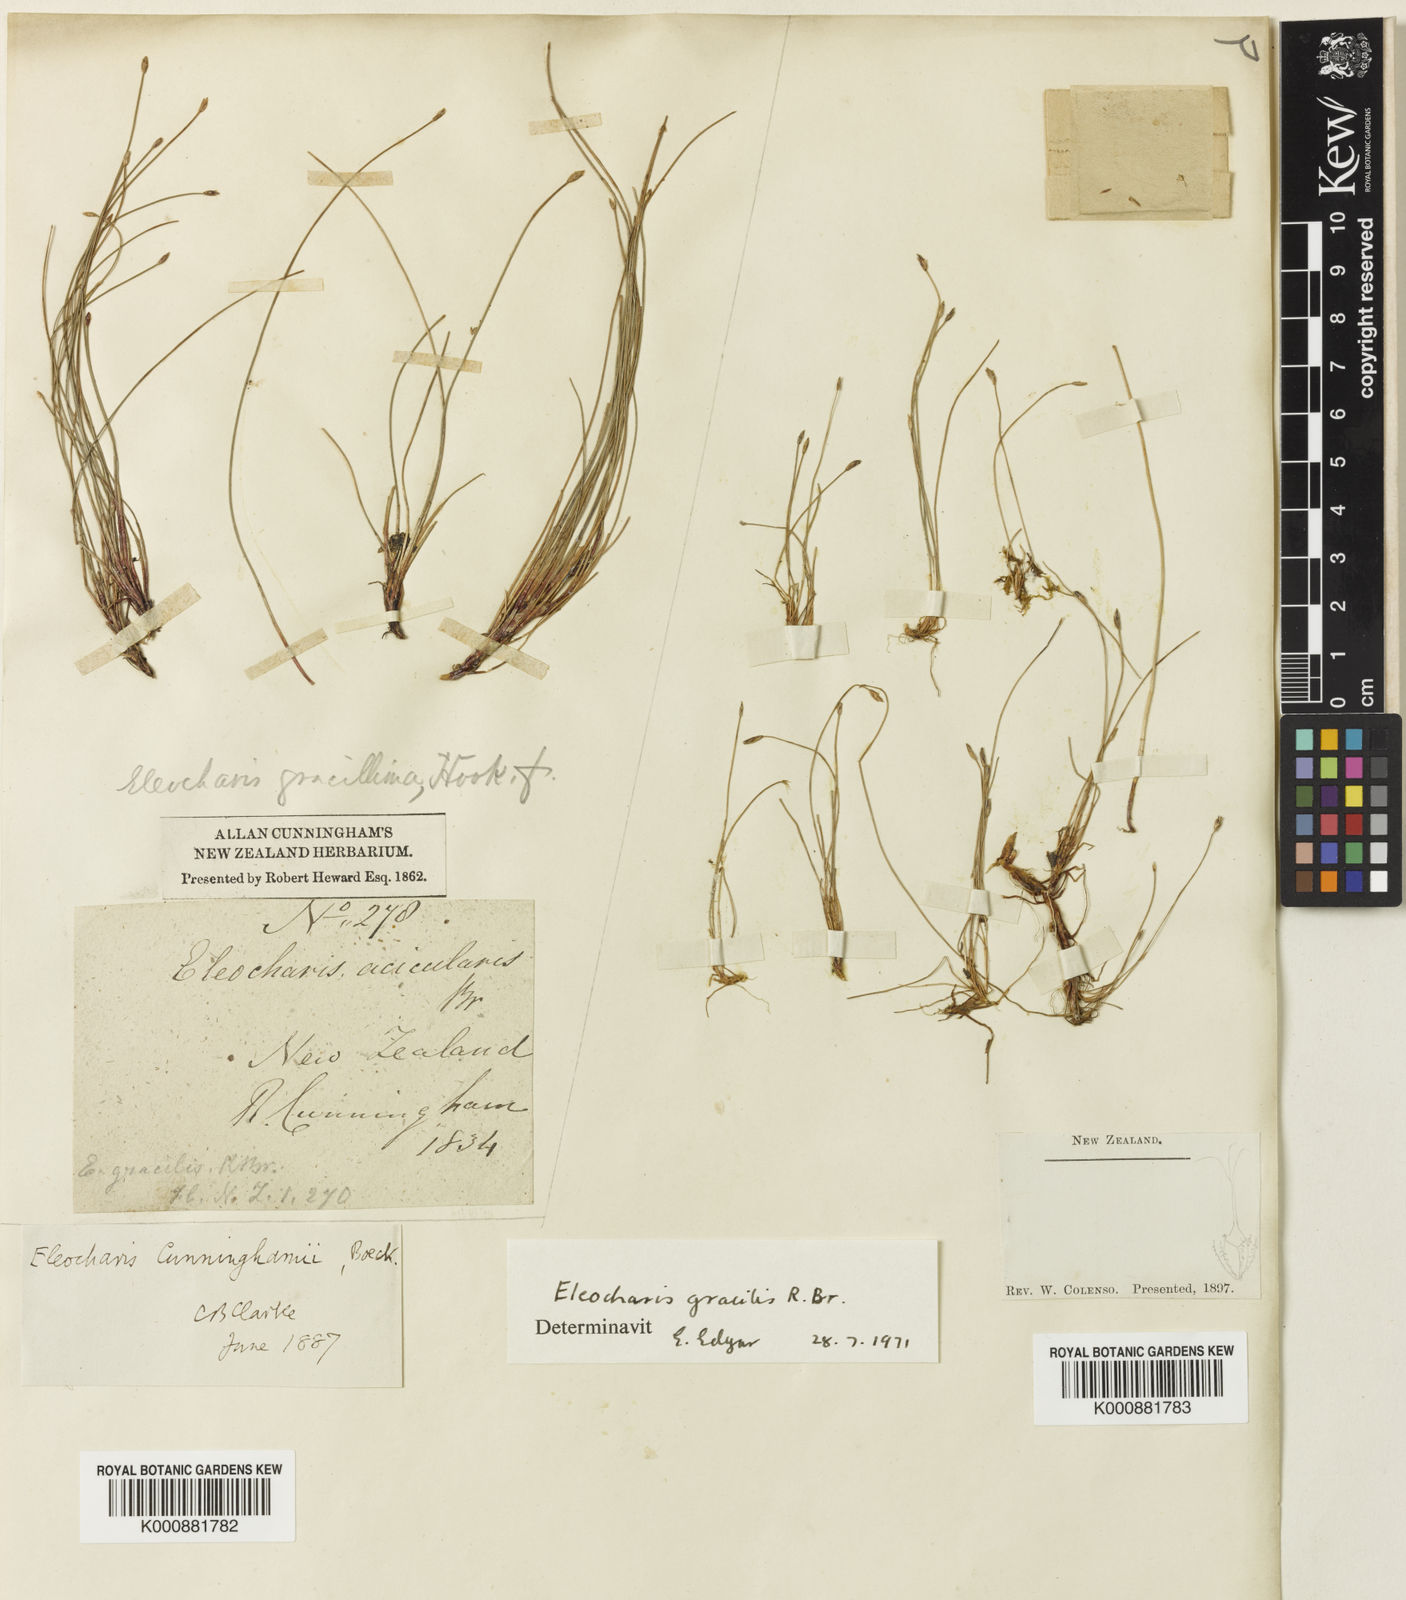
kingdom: Plantae
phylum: Tracheophyta
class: Liliopsida
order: Poales
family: Cyperaceae
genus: Eleocharis
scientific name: Eleocharis gracilis
